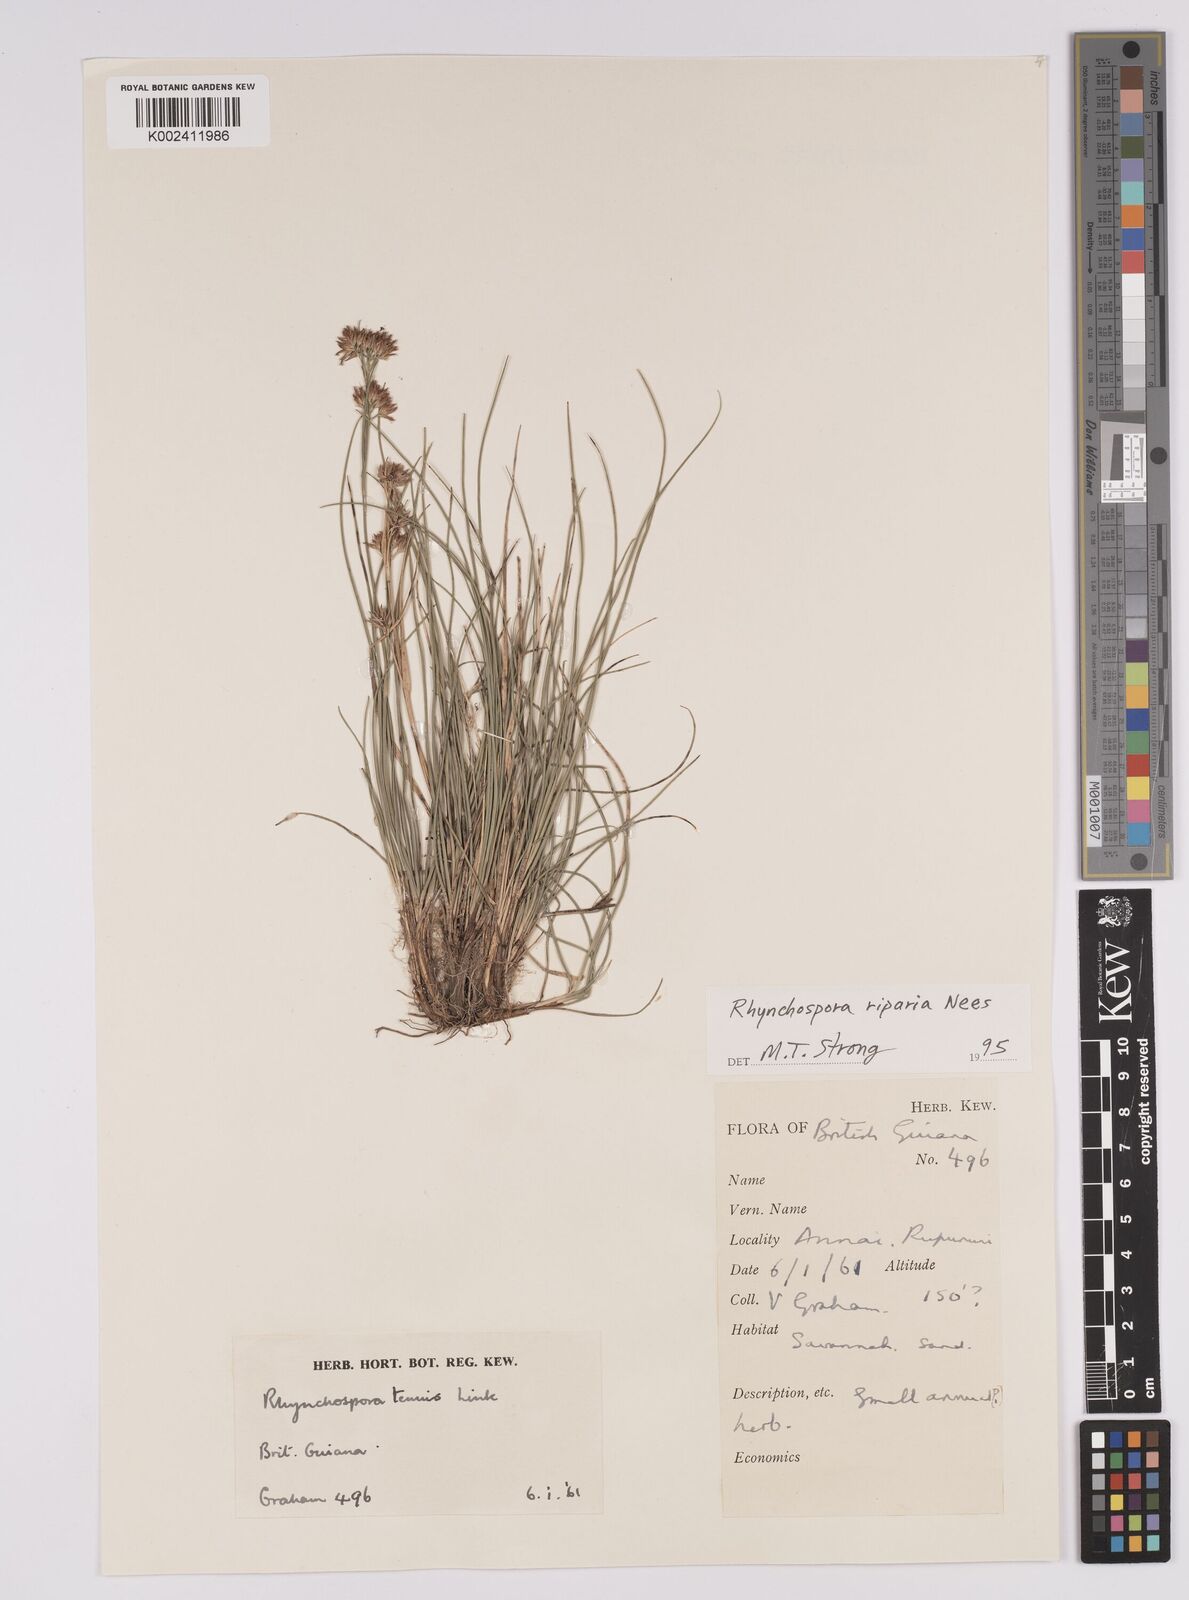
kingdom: Plantae
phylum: Tracheophyta
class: Liliopsida
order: Poales
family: Cyperaceae
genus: Rhynchospora
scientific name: Rhynchospora riparia
